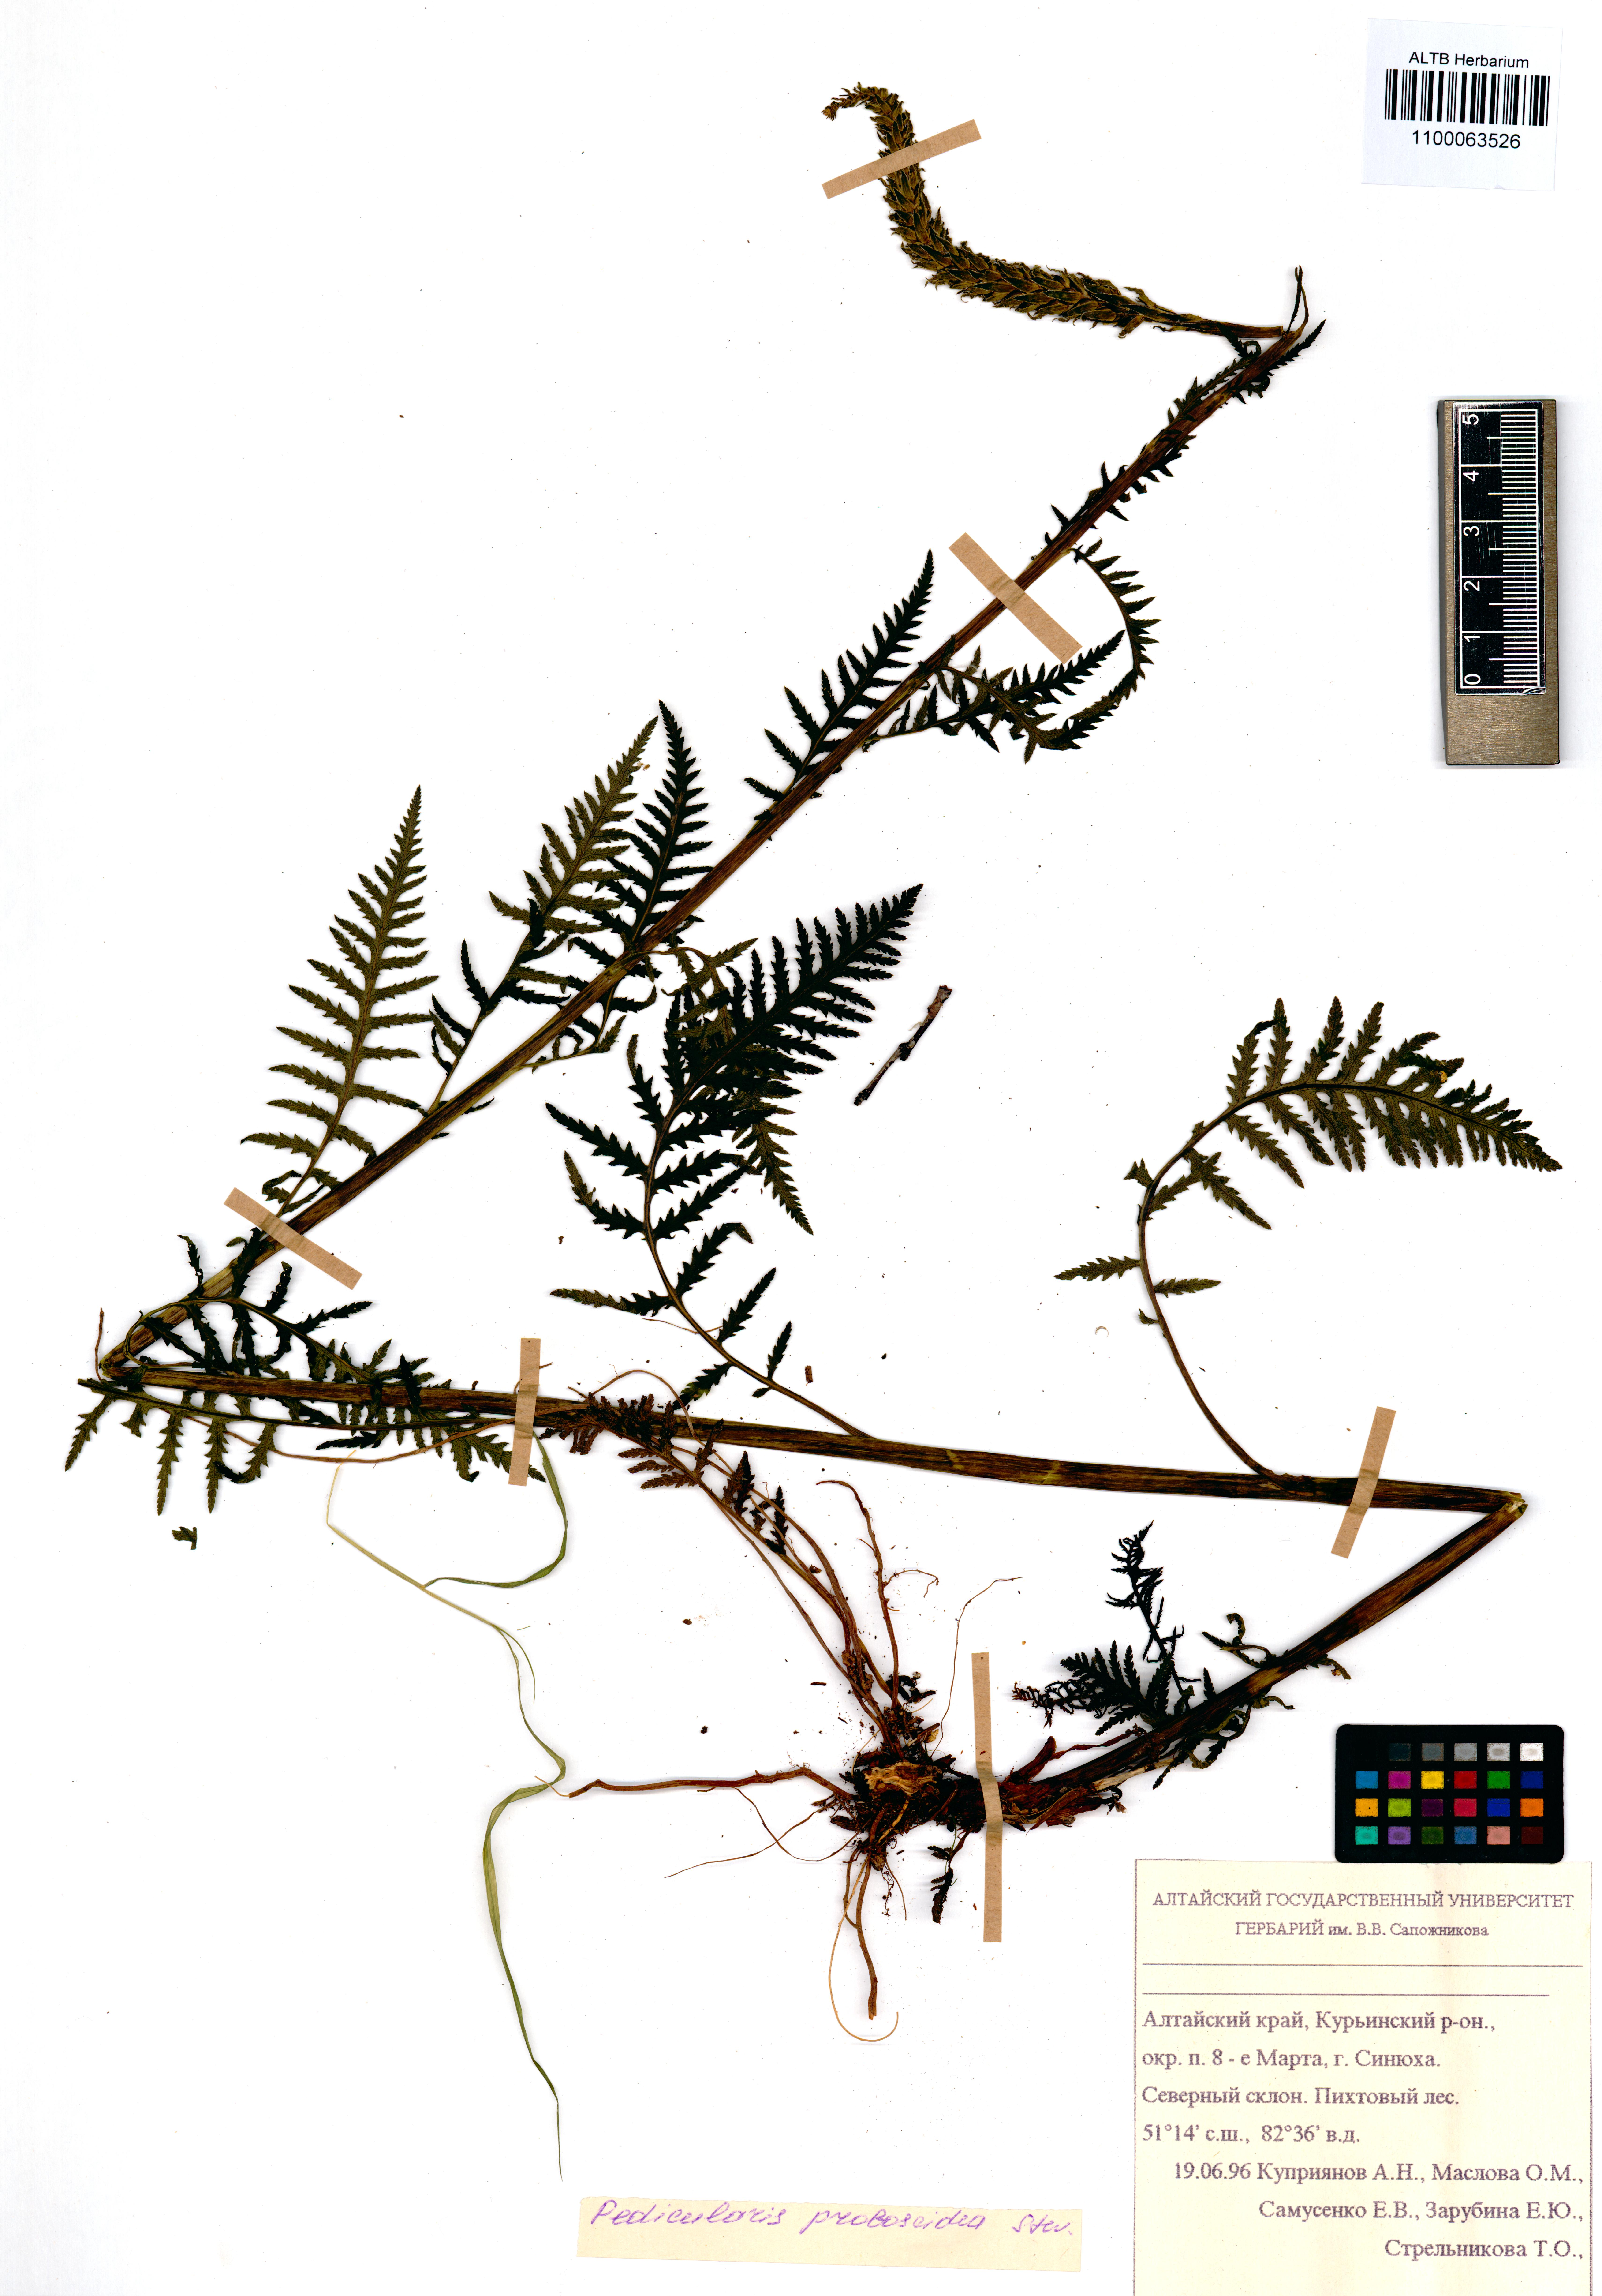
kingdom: Plantae
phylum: Tracheophyta
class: Magnoliopsida
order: Lamiales
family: Orobanchaceae
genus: Pedicularis
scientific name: Pedicularis cenisia
